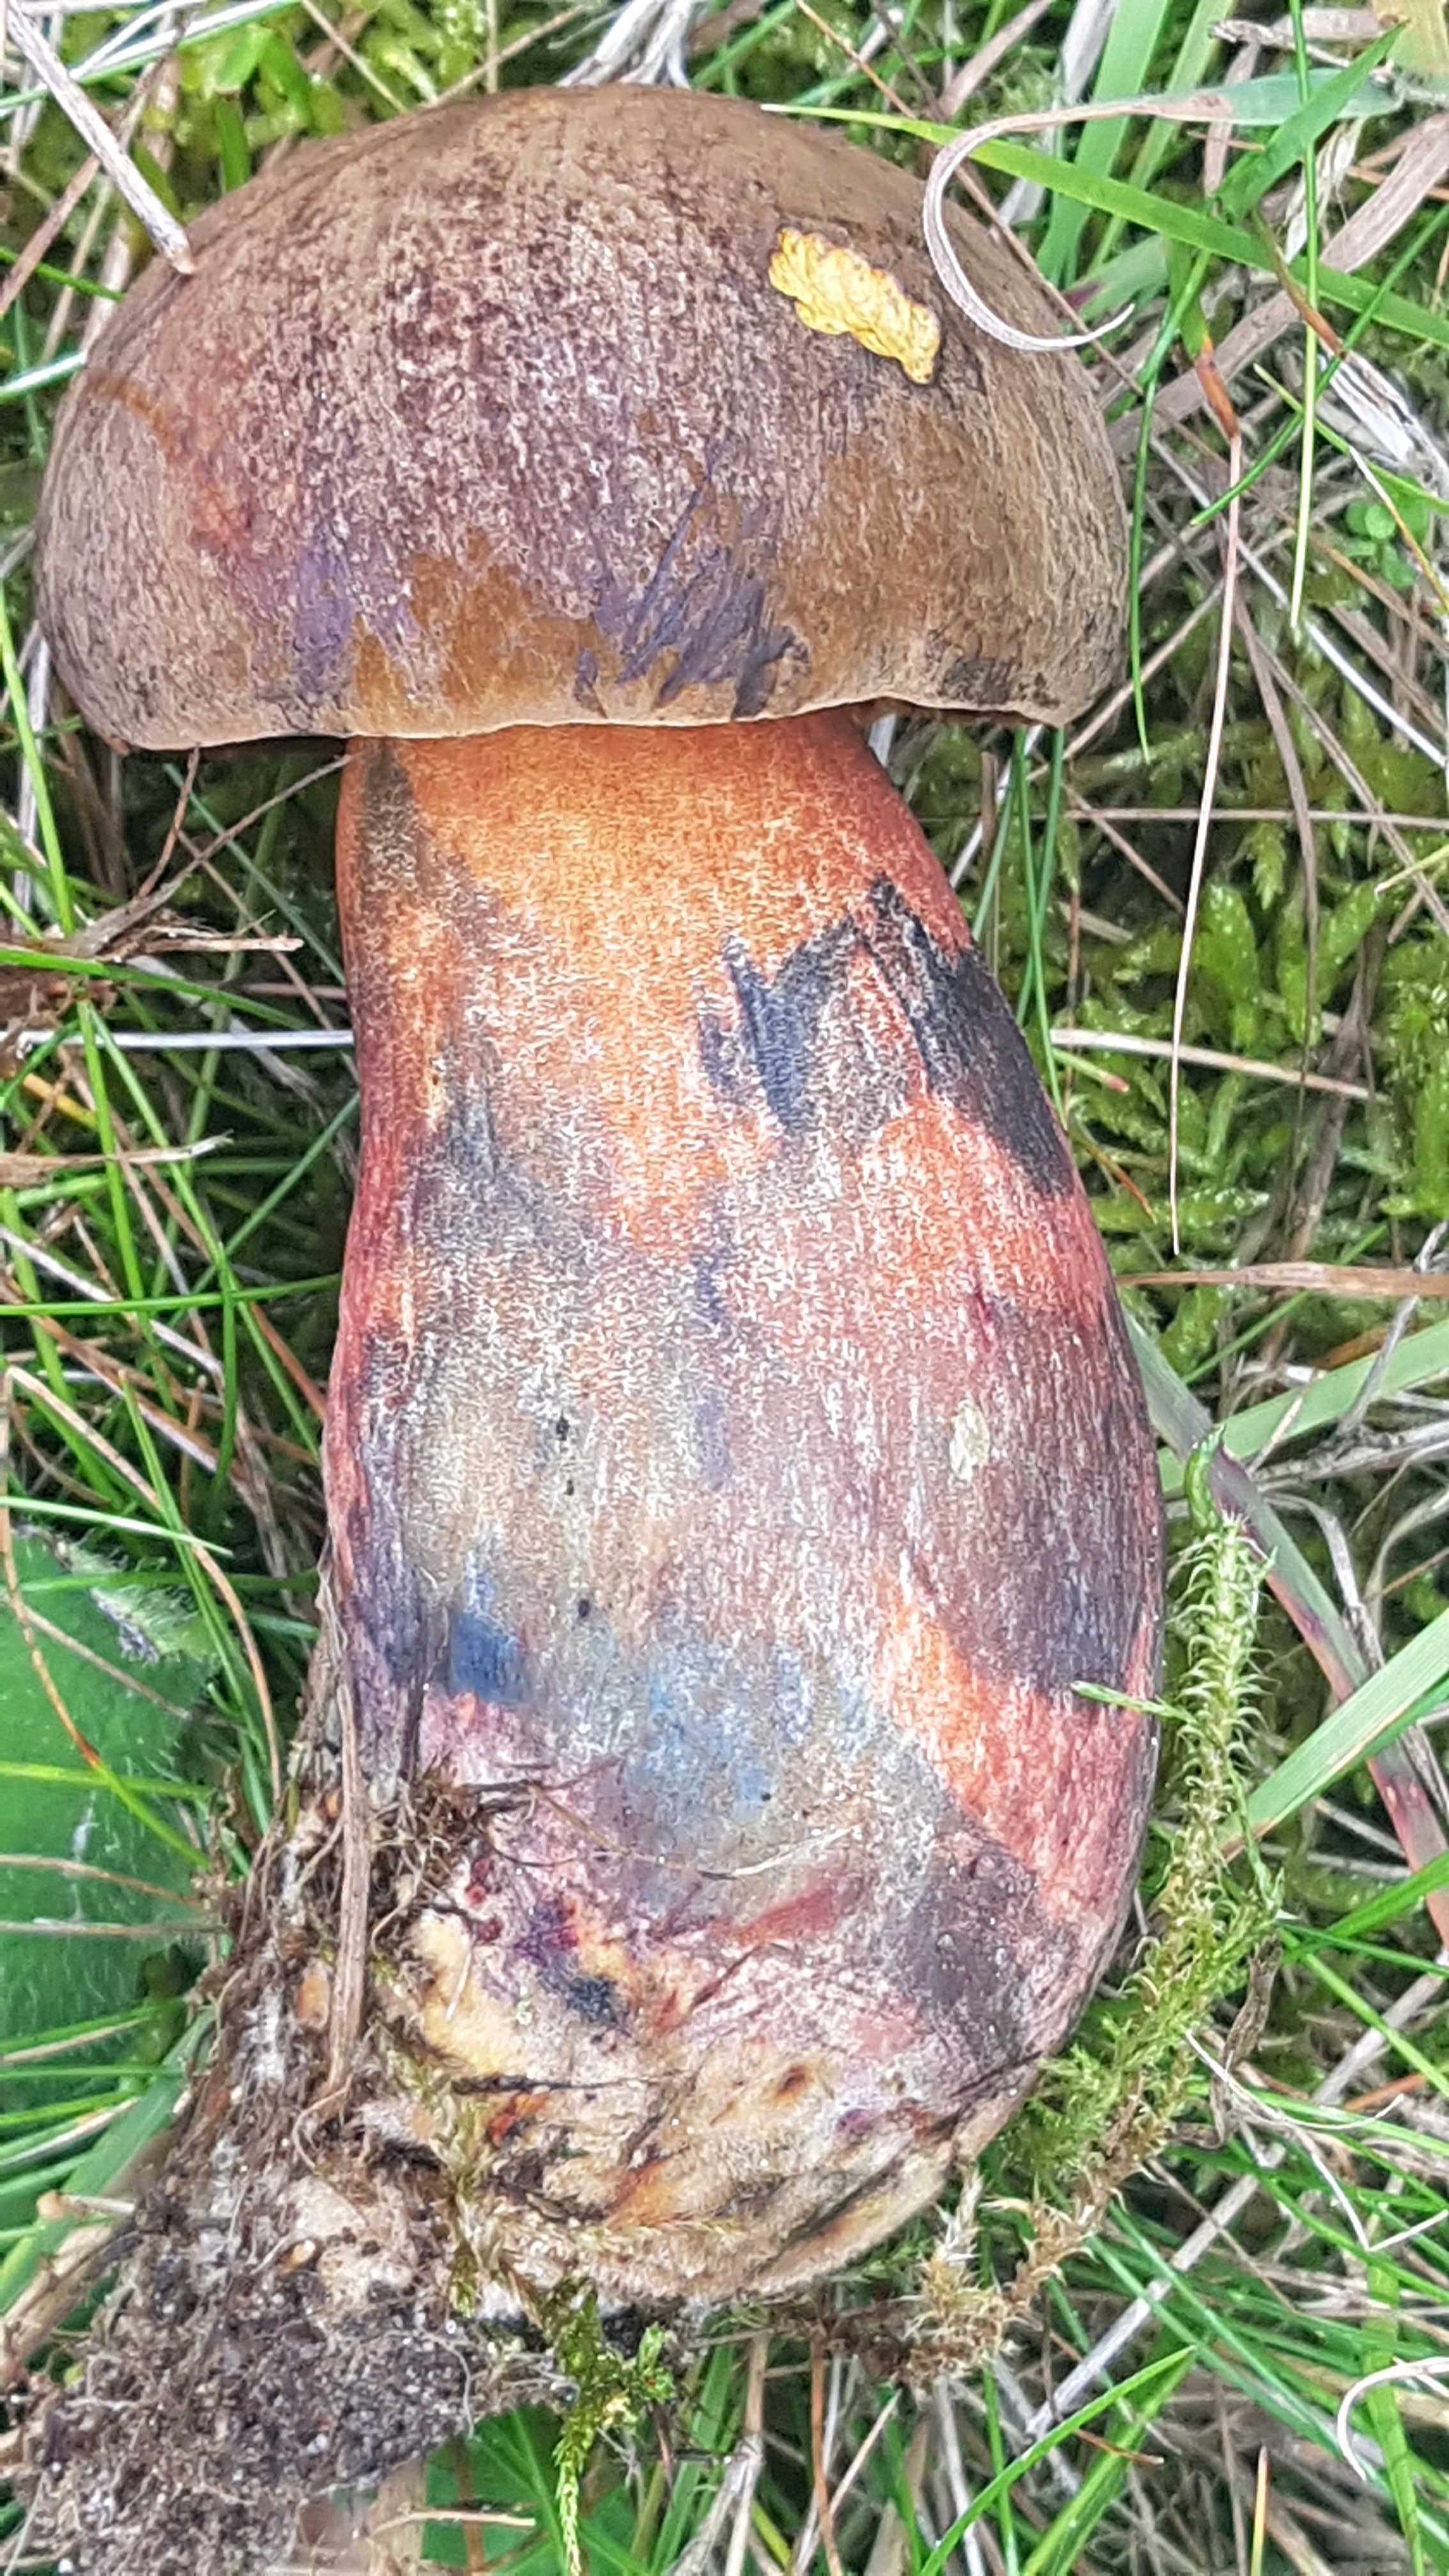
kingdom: Fungi
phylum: Basidiomycota
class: Agaricomycetes
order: Boletales
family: Boletaceae
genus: Neoboletus
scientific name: Neoboletus erythropus
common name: punktstokket indigorørhat
